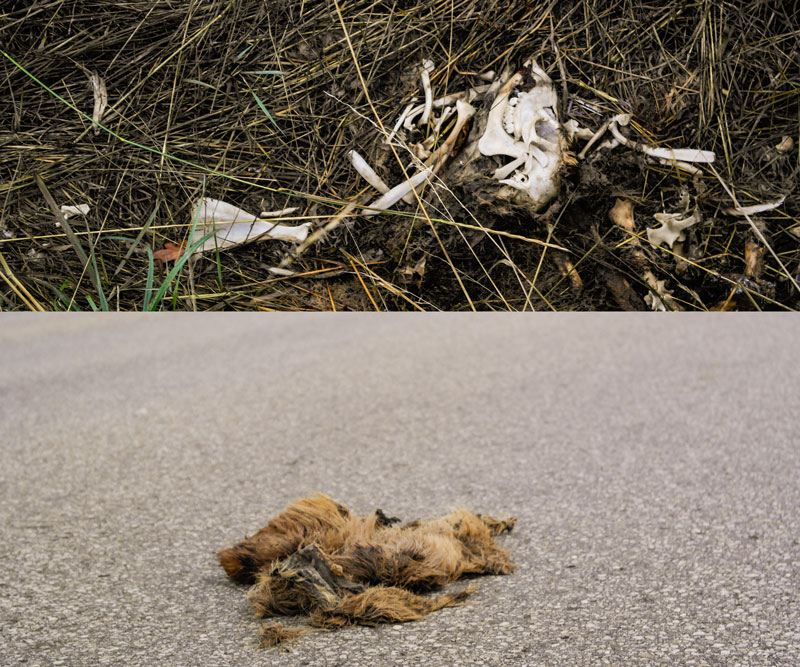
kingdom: Animalia
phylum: Chordata
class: Mammalia
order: Artiodactyla
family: Cervidae
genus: Capreolus
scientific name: Capreolus capreolus
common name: Western roe deer
